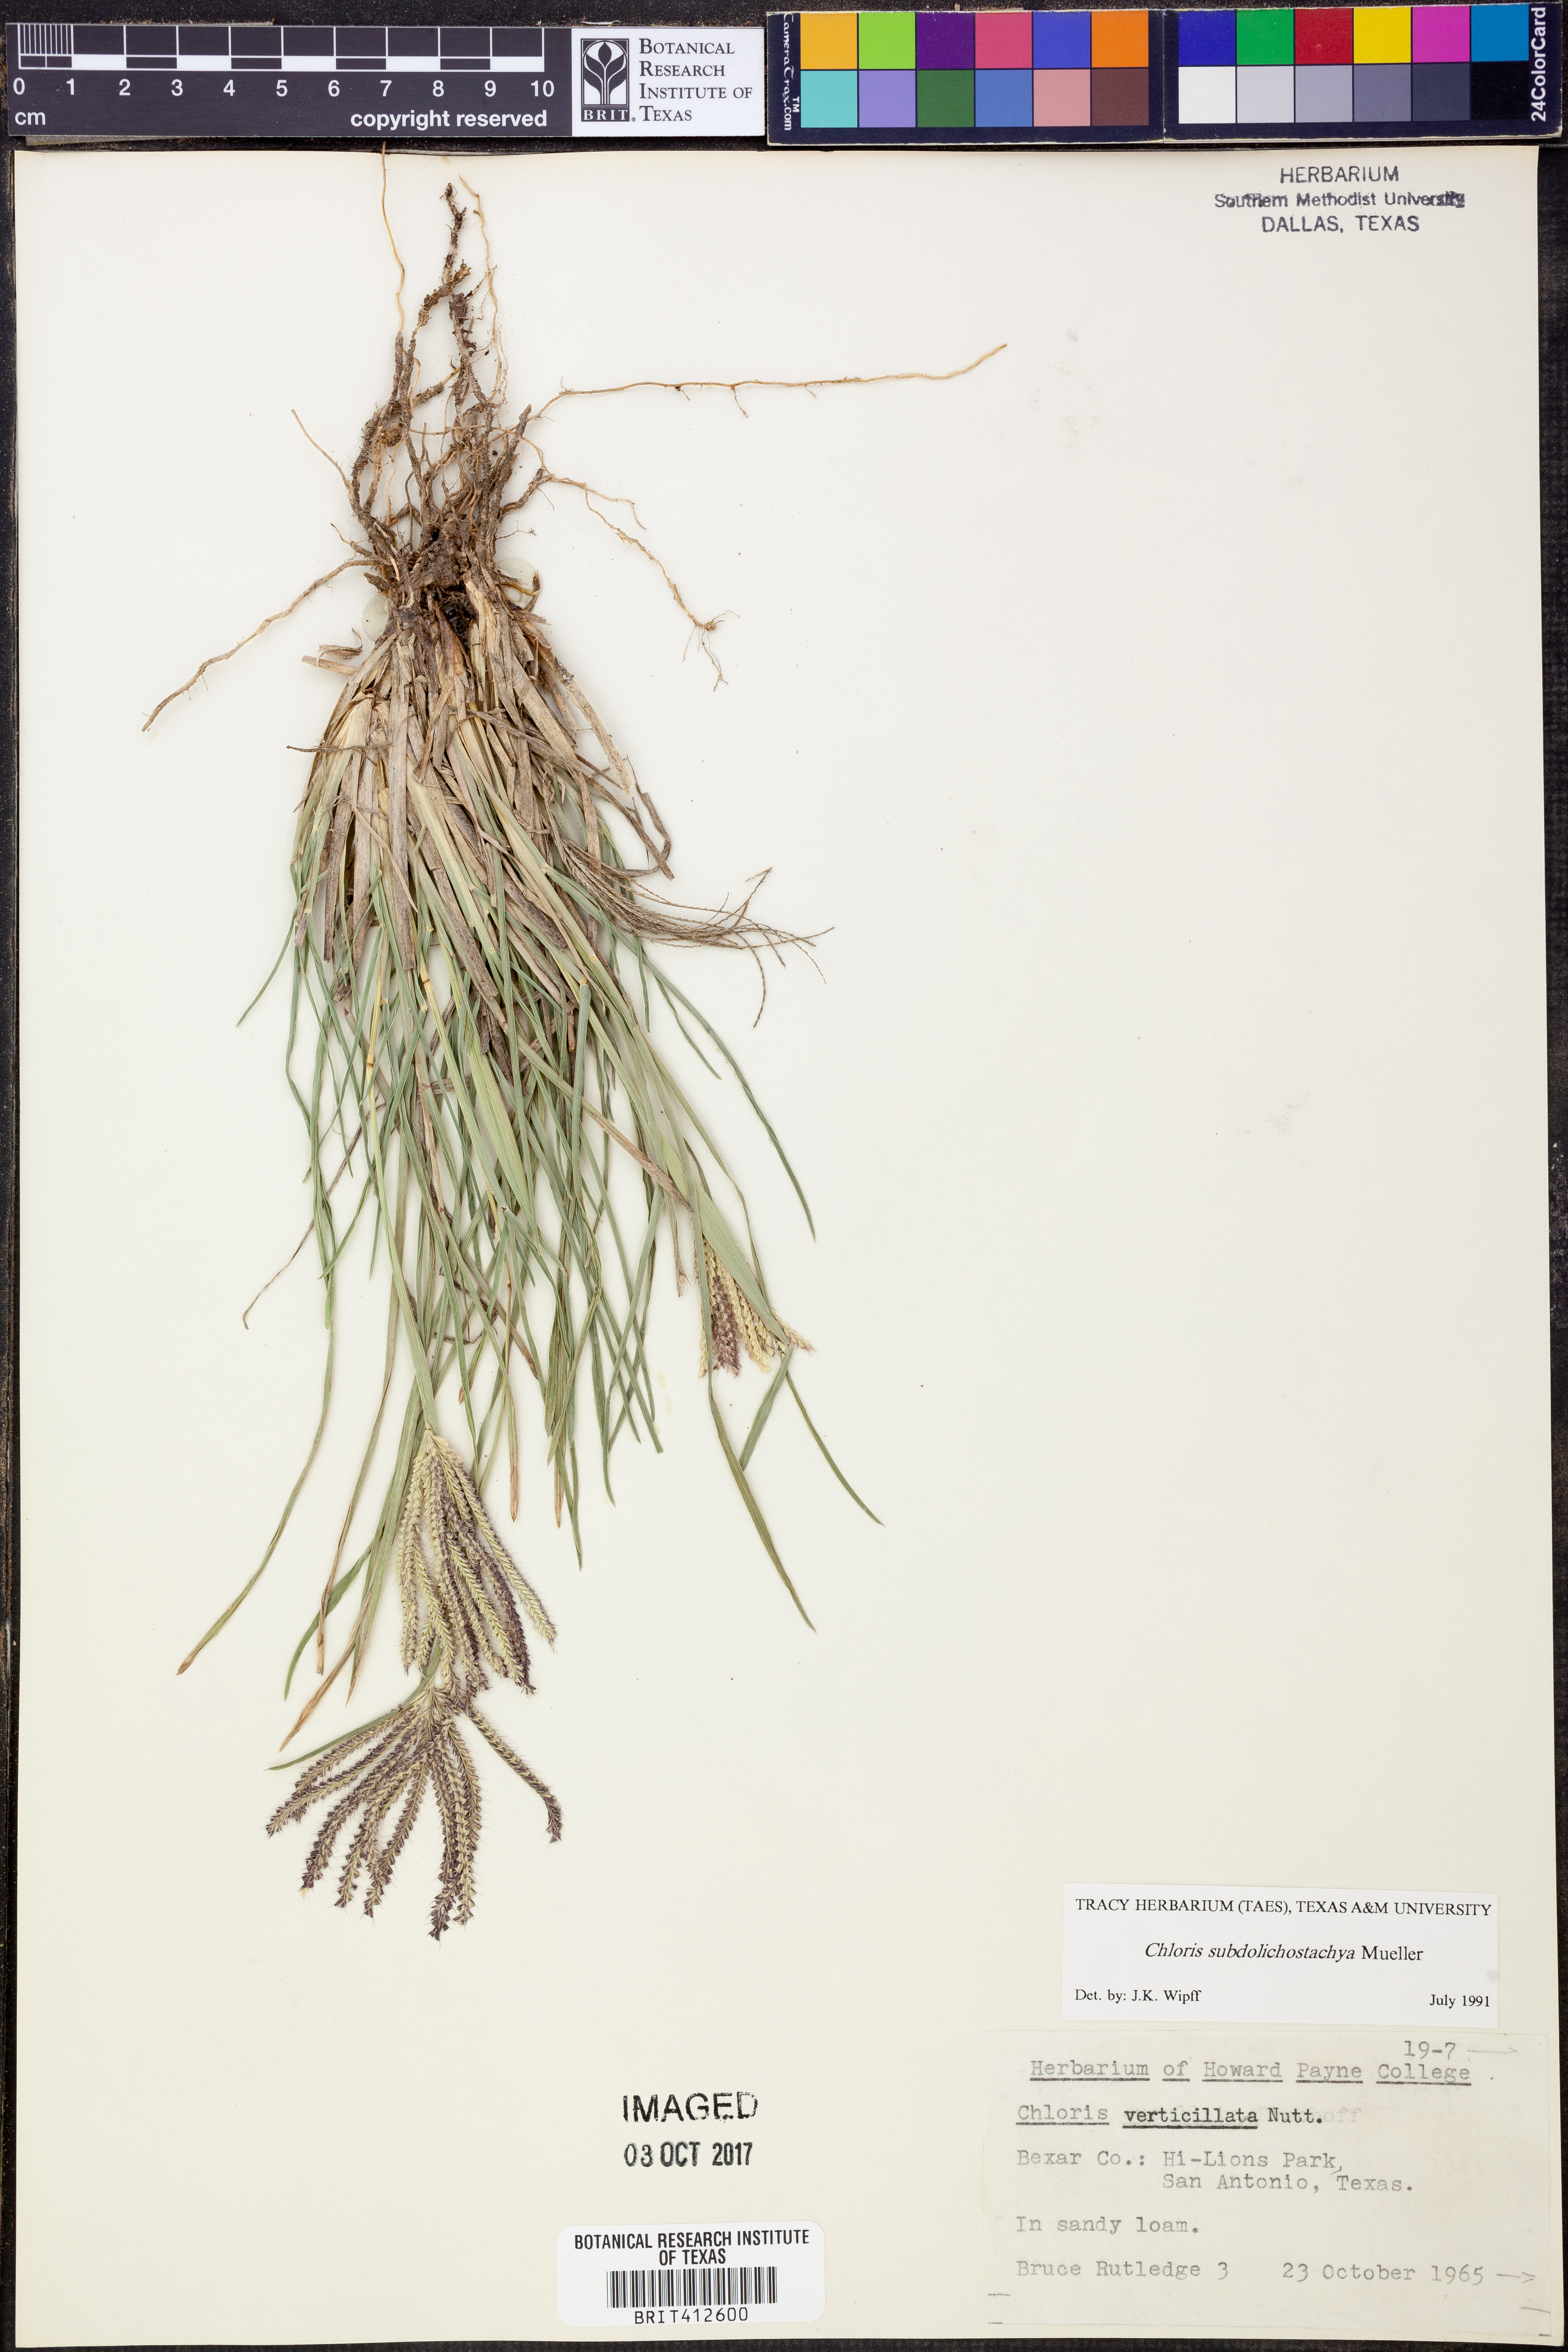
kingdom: Plantae
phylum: Tracheophyta
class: Liliopsida
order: Poales
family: Poaceae
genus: Chloris
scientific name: Chloris subdolichostachya
